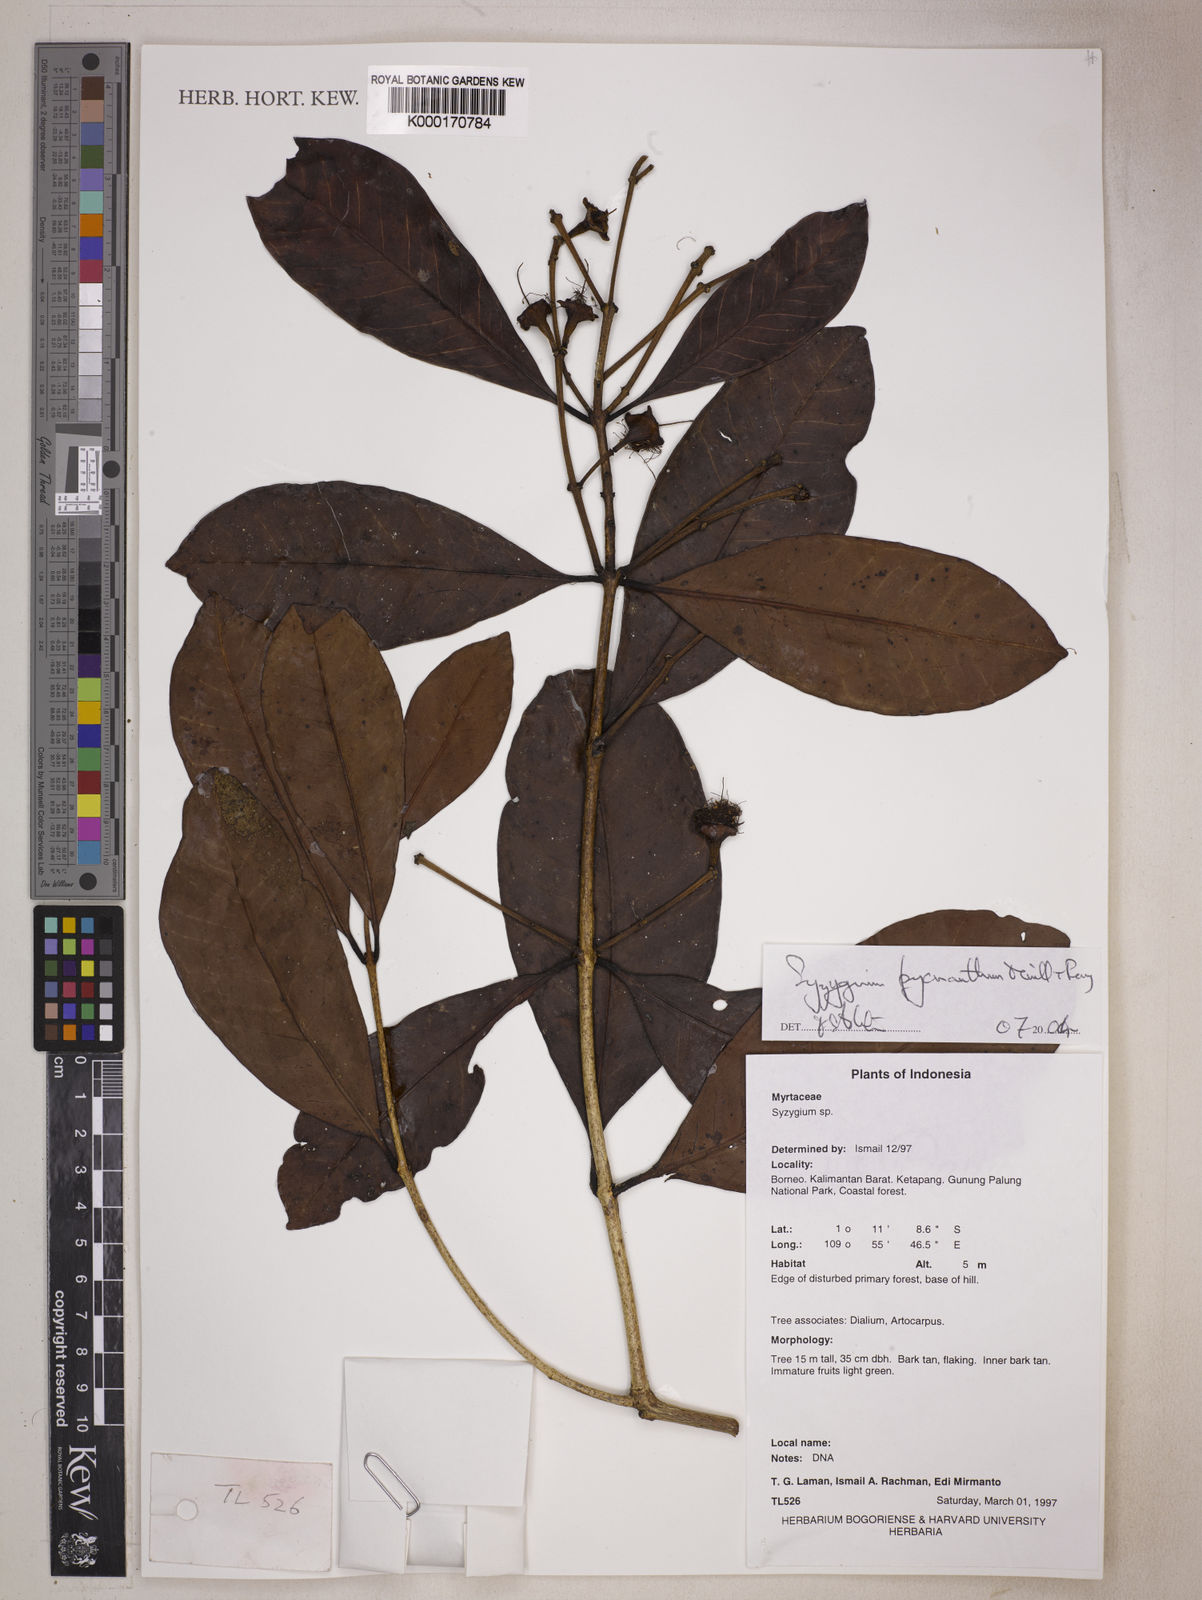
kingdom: Plantae
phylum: Tracheophyta
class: Magnoliopsida
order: Myrtales
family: Myrtaceae
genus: Syzygium
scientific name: Syzygium pycnanthum
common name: Wild rose
